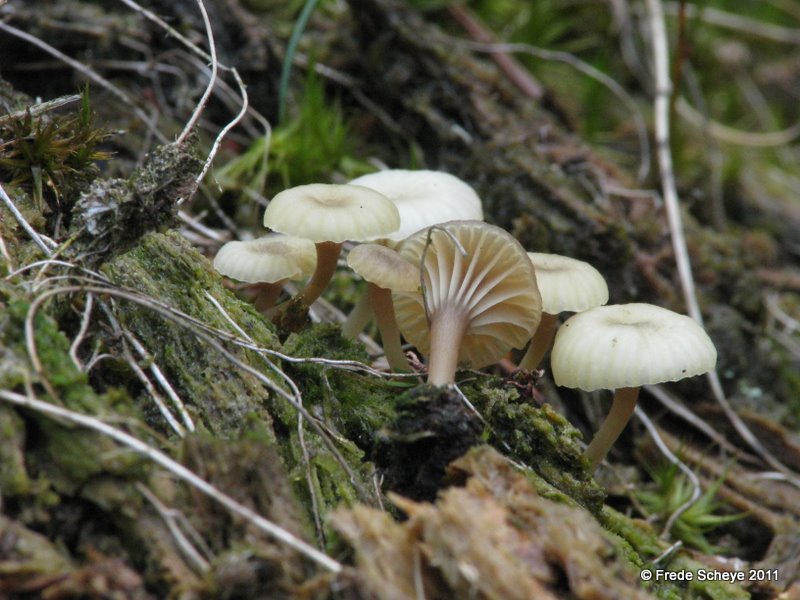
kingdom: Fungi
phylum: Basidiomycota
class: Agaricomycetes
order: Agaricales
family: Hygrophoraceae
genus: Lichenomphalia
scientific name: Lichenomphalia umbellifera
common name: tørve-lavhat
